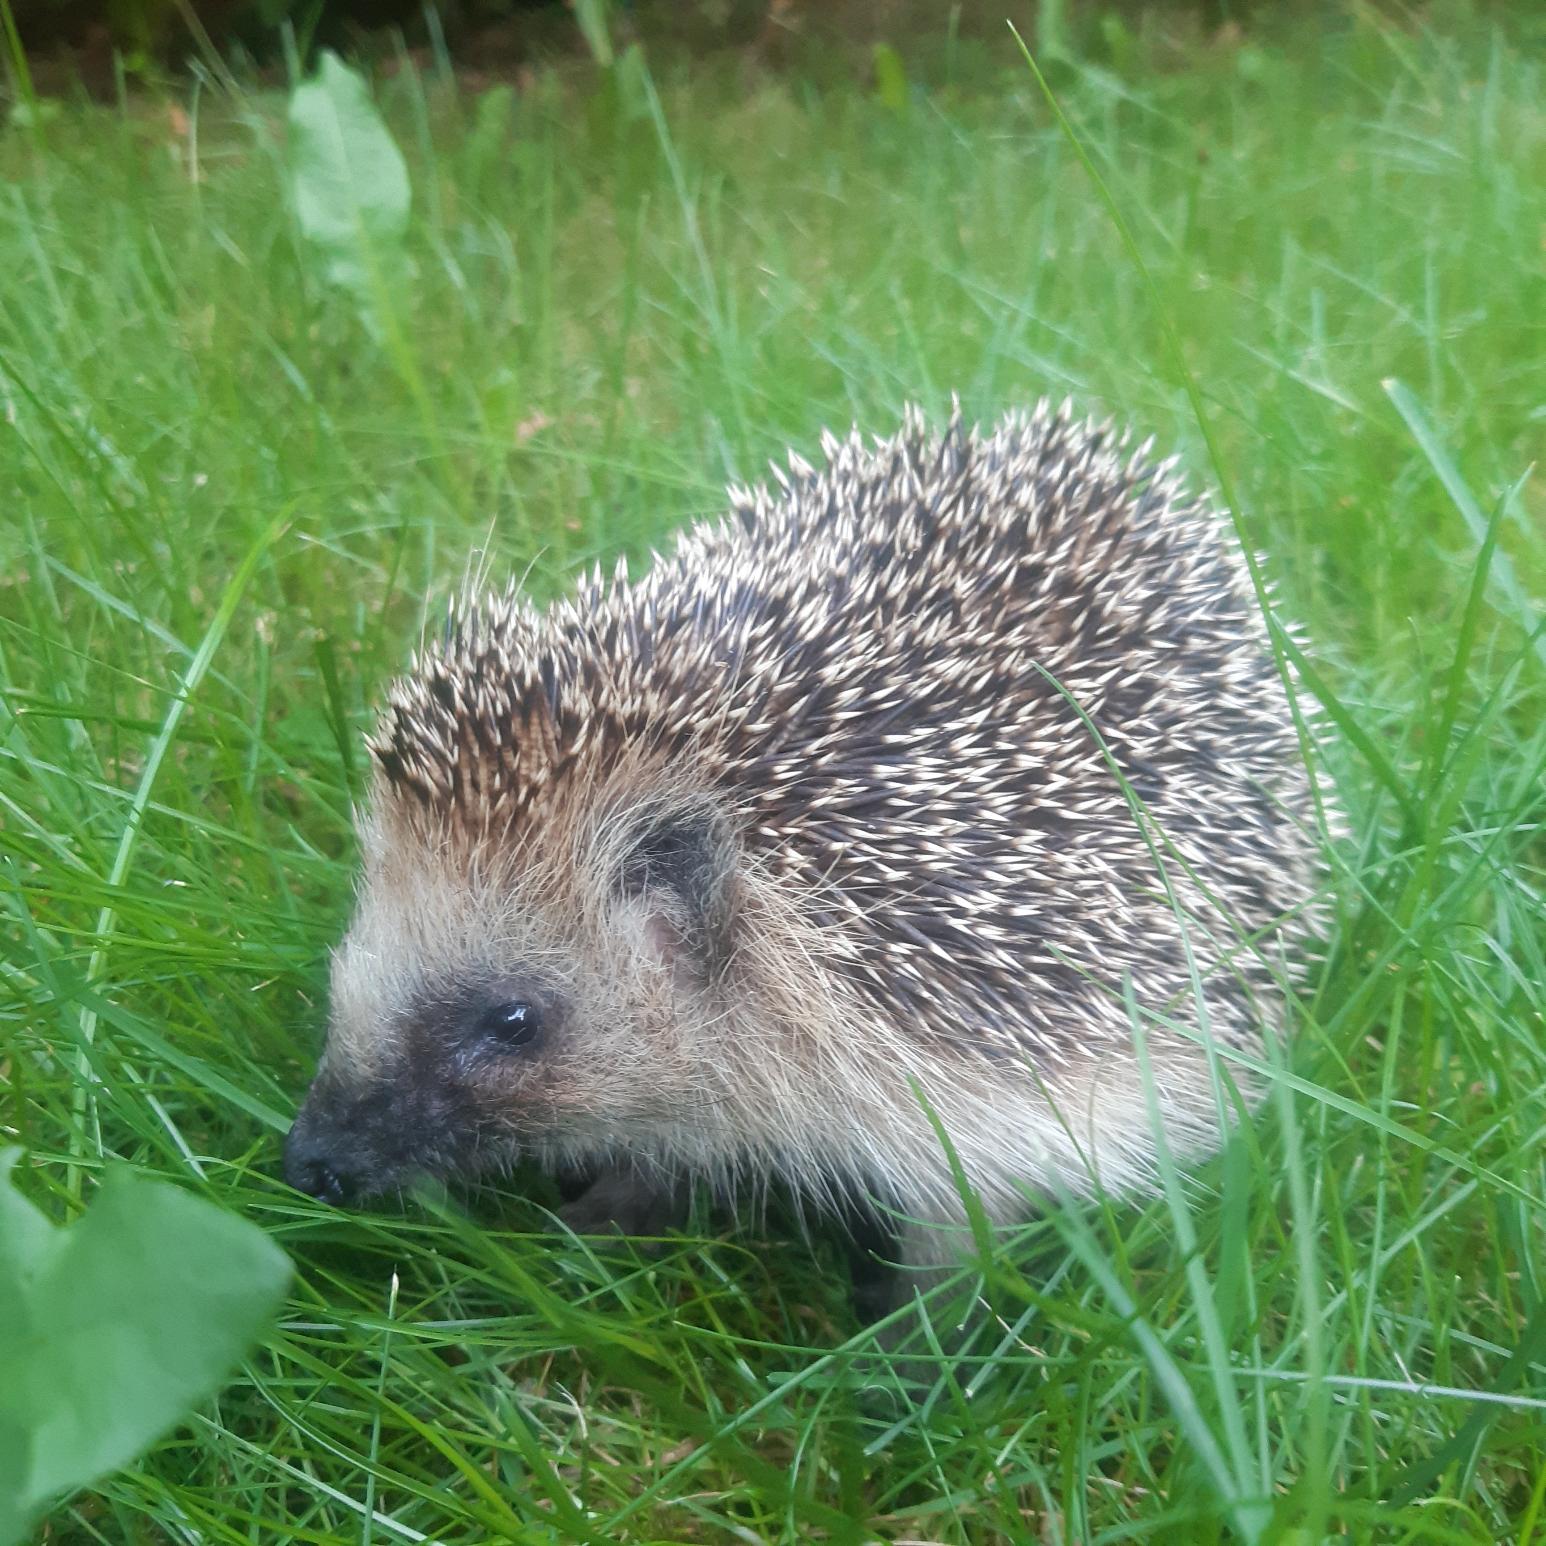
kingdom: Animalia
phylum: Chordata
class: Mammalia
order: Erinaceomorpha
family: Erinaceidae
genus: Erinaceus
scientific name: Erinaceus europaeus
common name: Pindsvin
